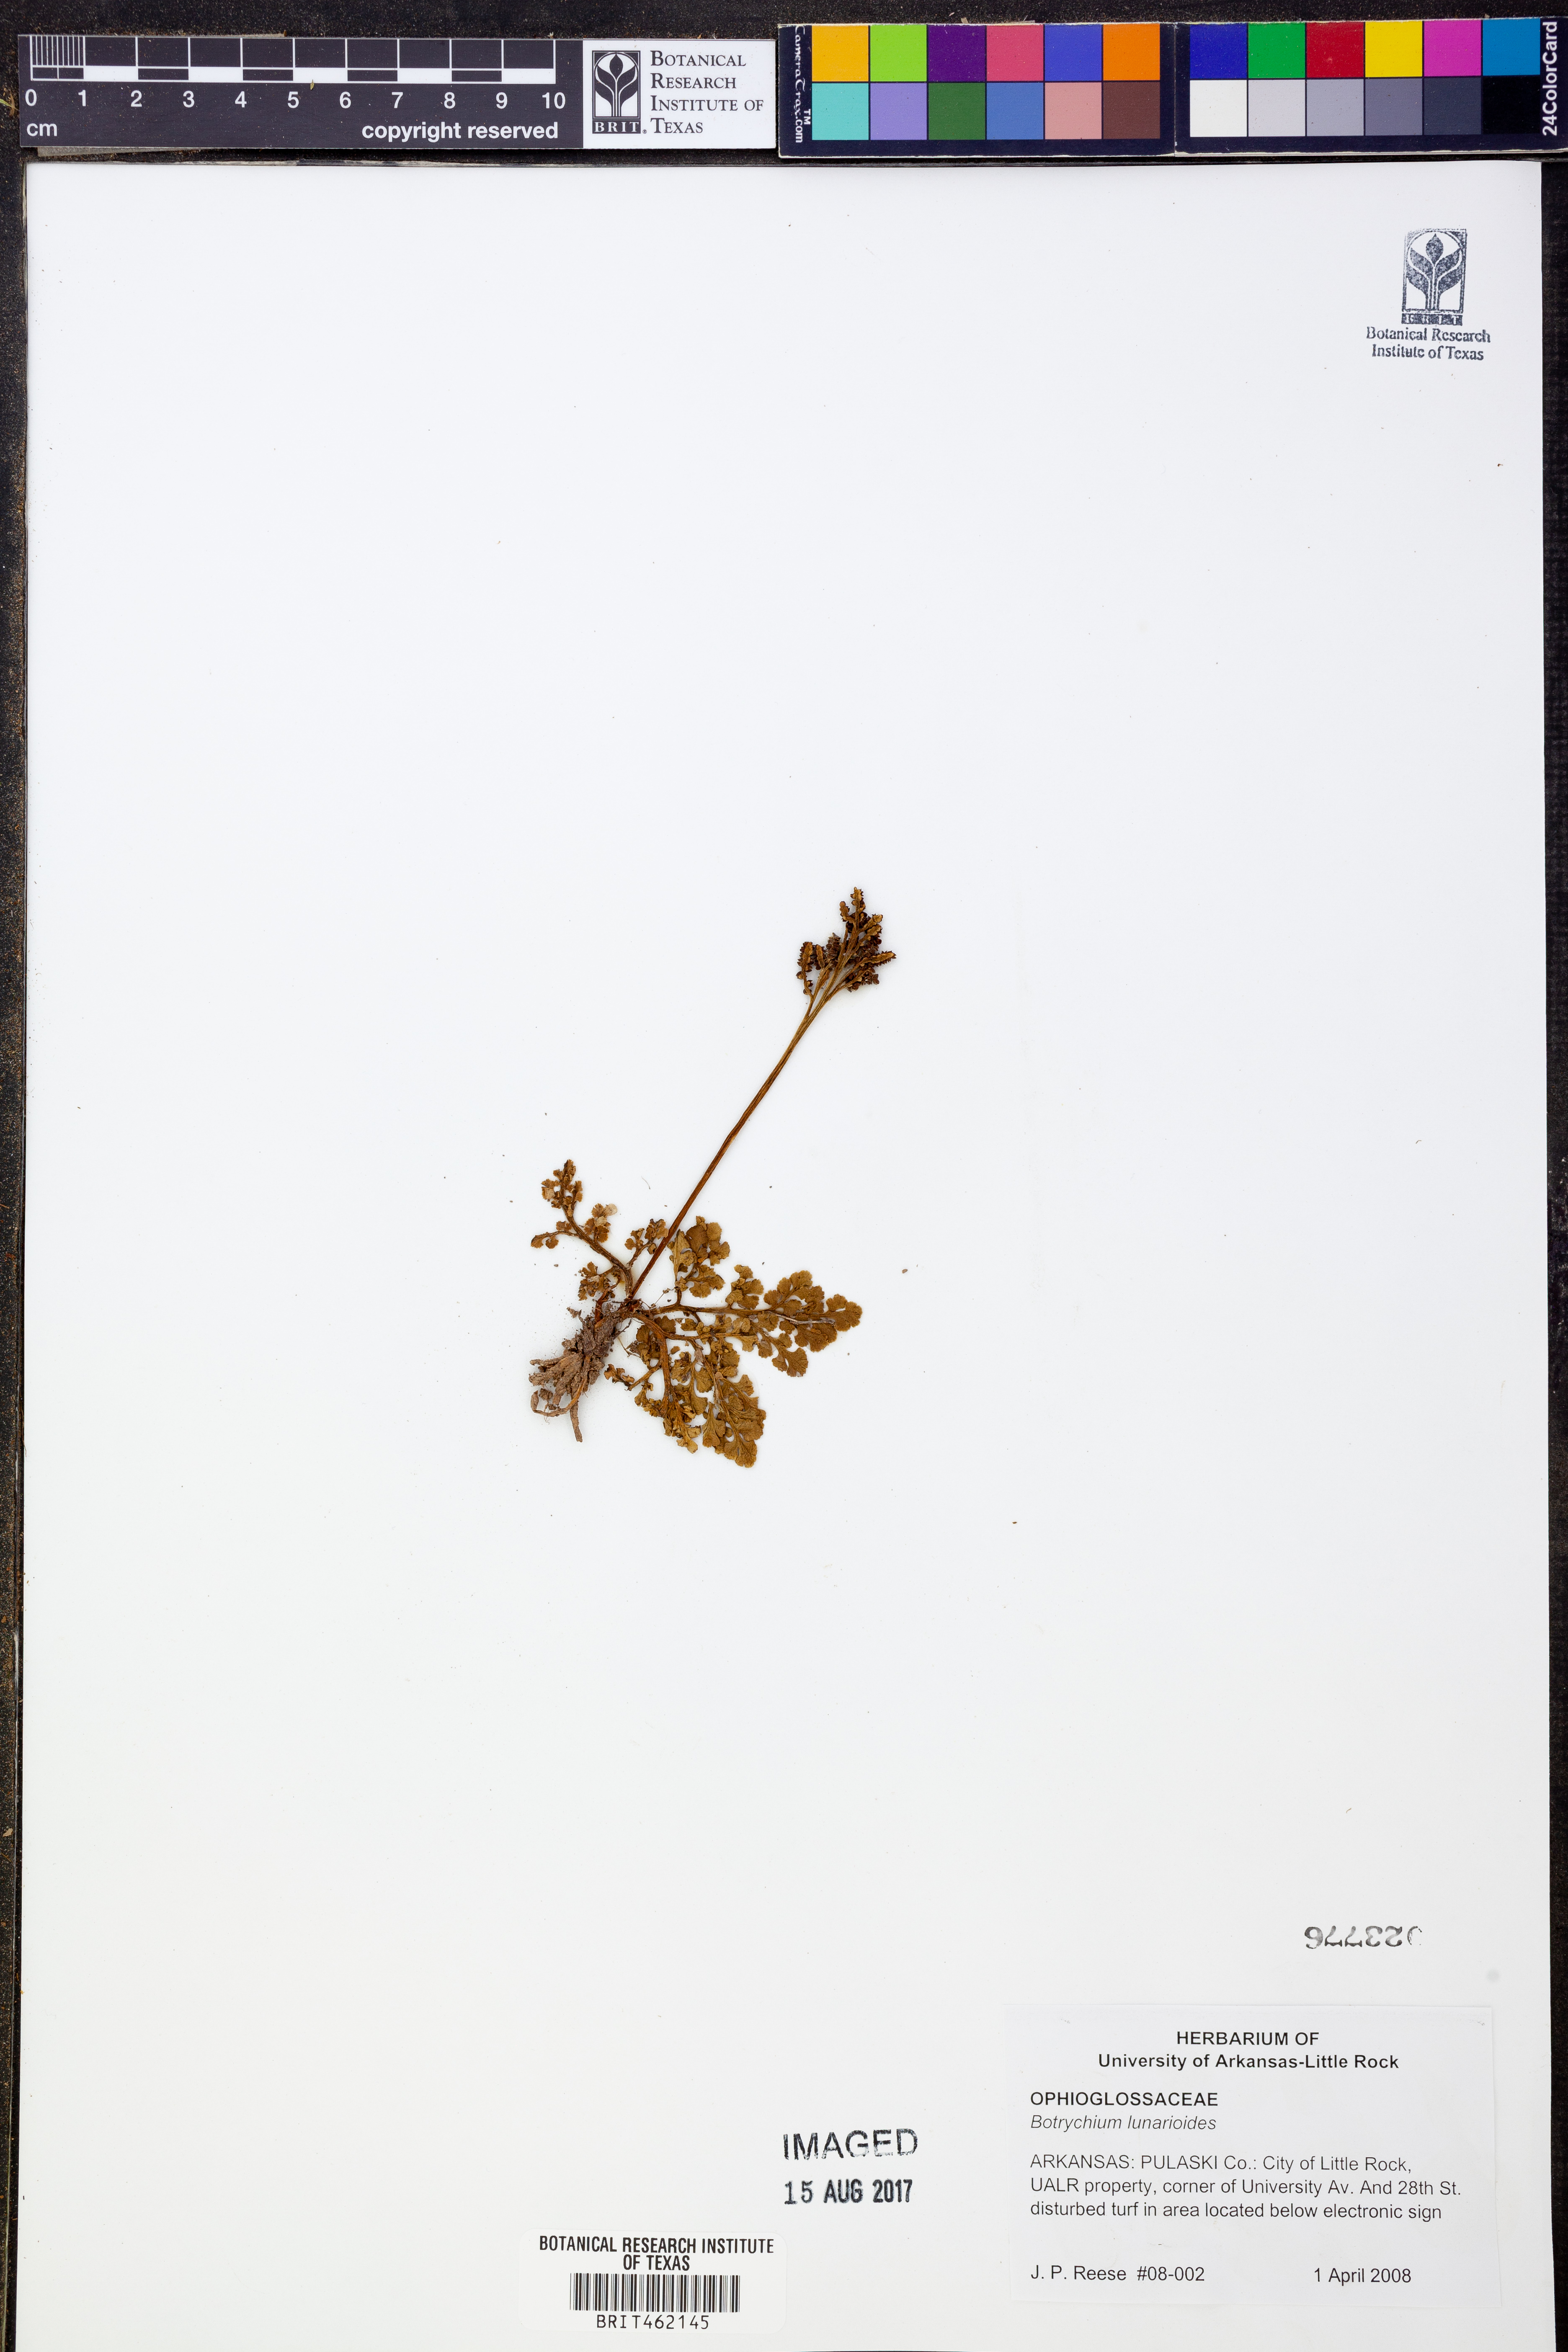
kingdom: Plantae
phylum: Tracheophyta
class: Polypodiopsida
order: Ophioglossales
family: Ophioglossaceae
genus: Sceptridium
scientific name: Sceptridium lunarioides
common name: Prostrate grapefern
